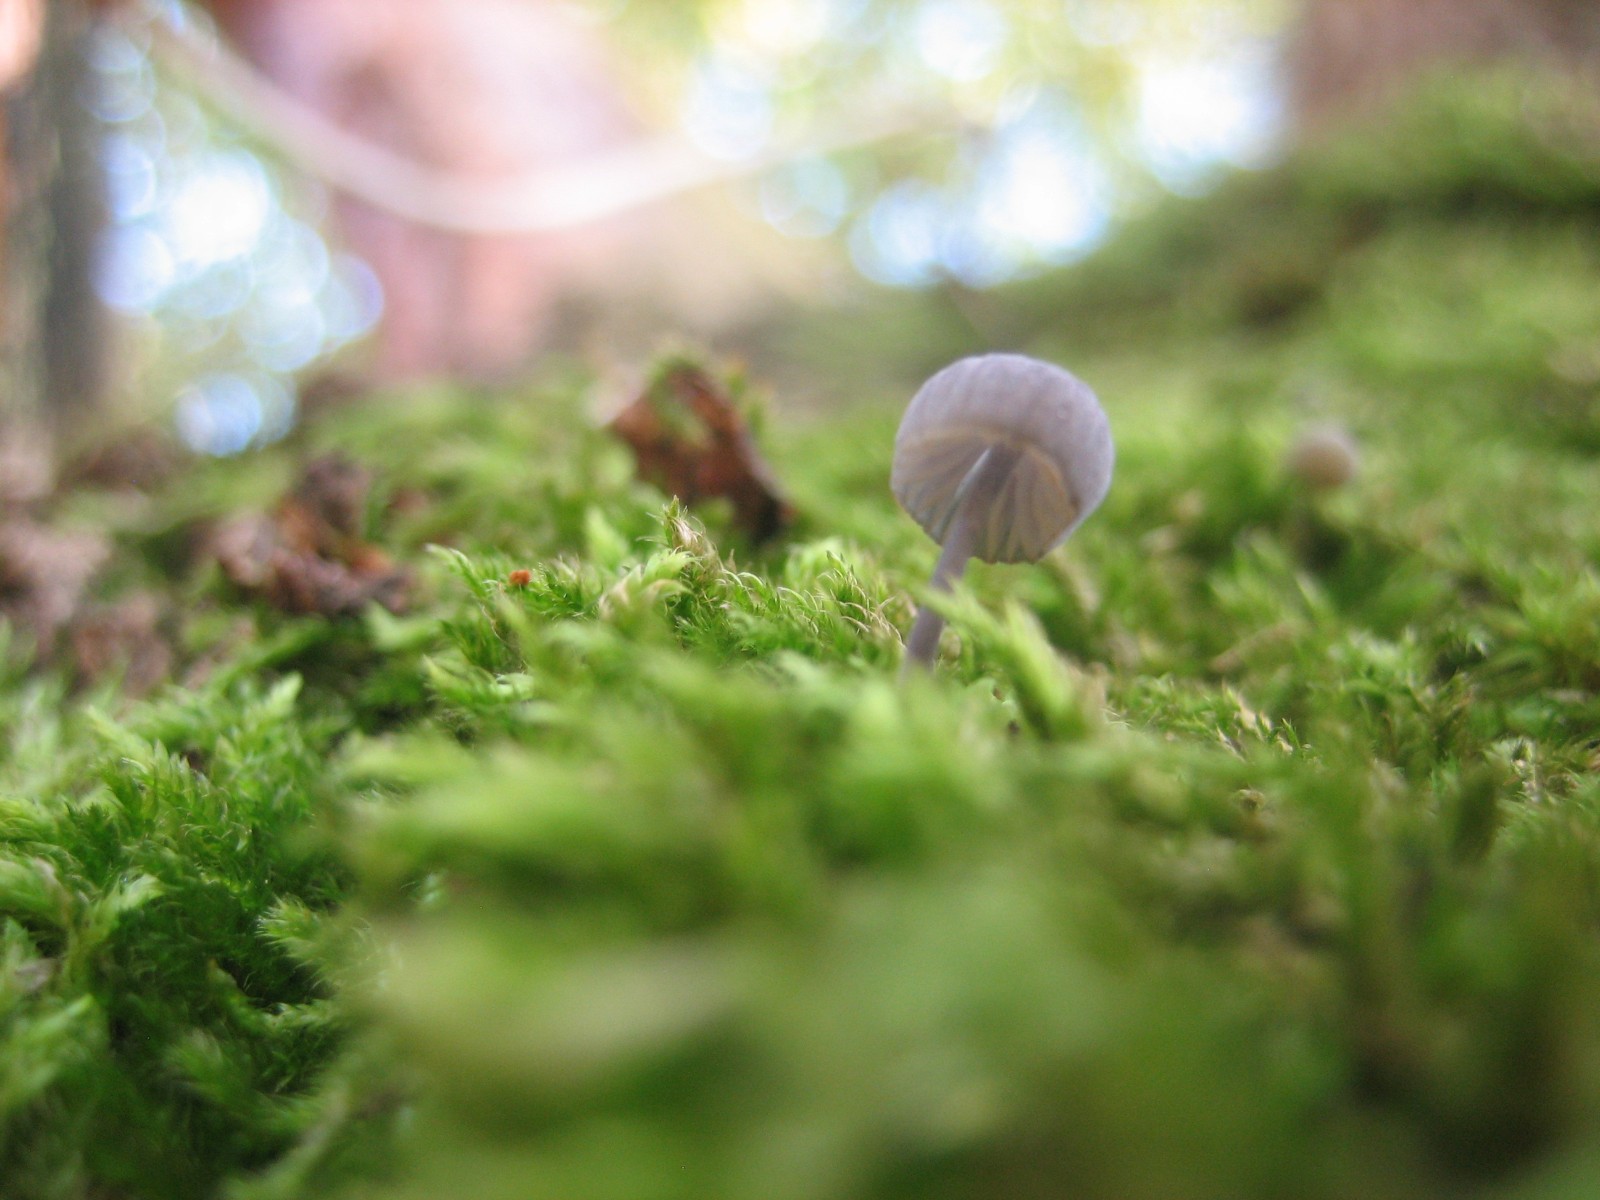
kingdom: Fungi
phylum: Basidiomycota
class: Agaricomycetes
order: Agaricales
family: Mycenaceae
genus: Mycena
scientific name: Mycena pseudocorticola
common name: gråblå bark-huesvamp
